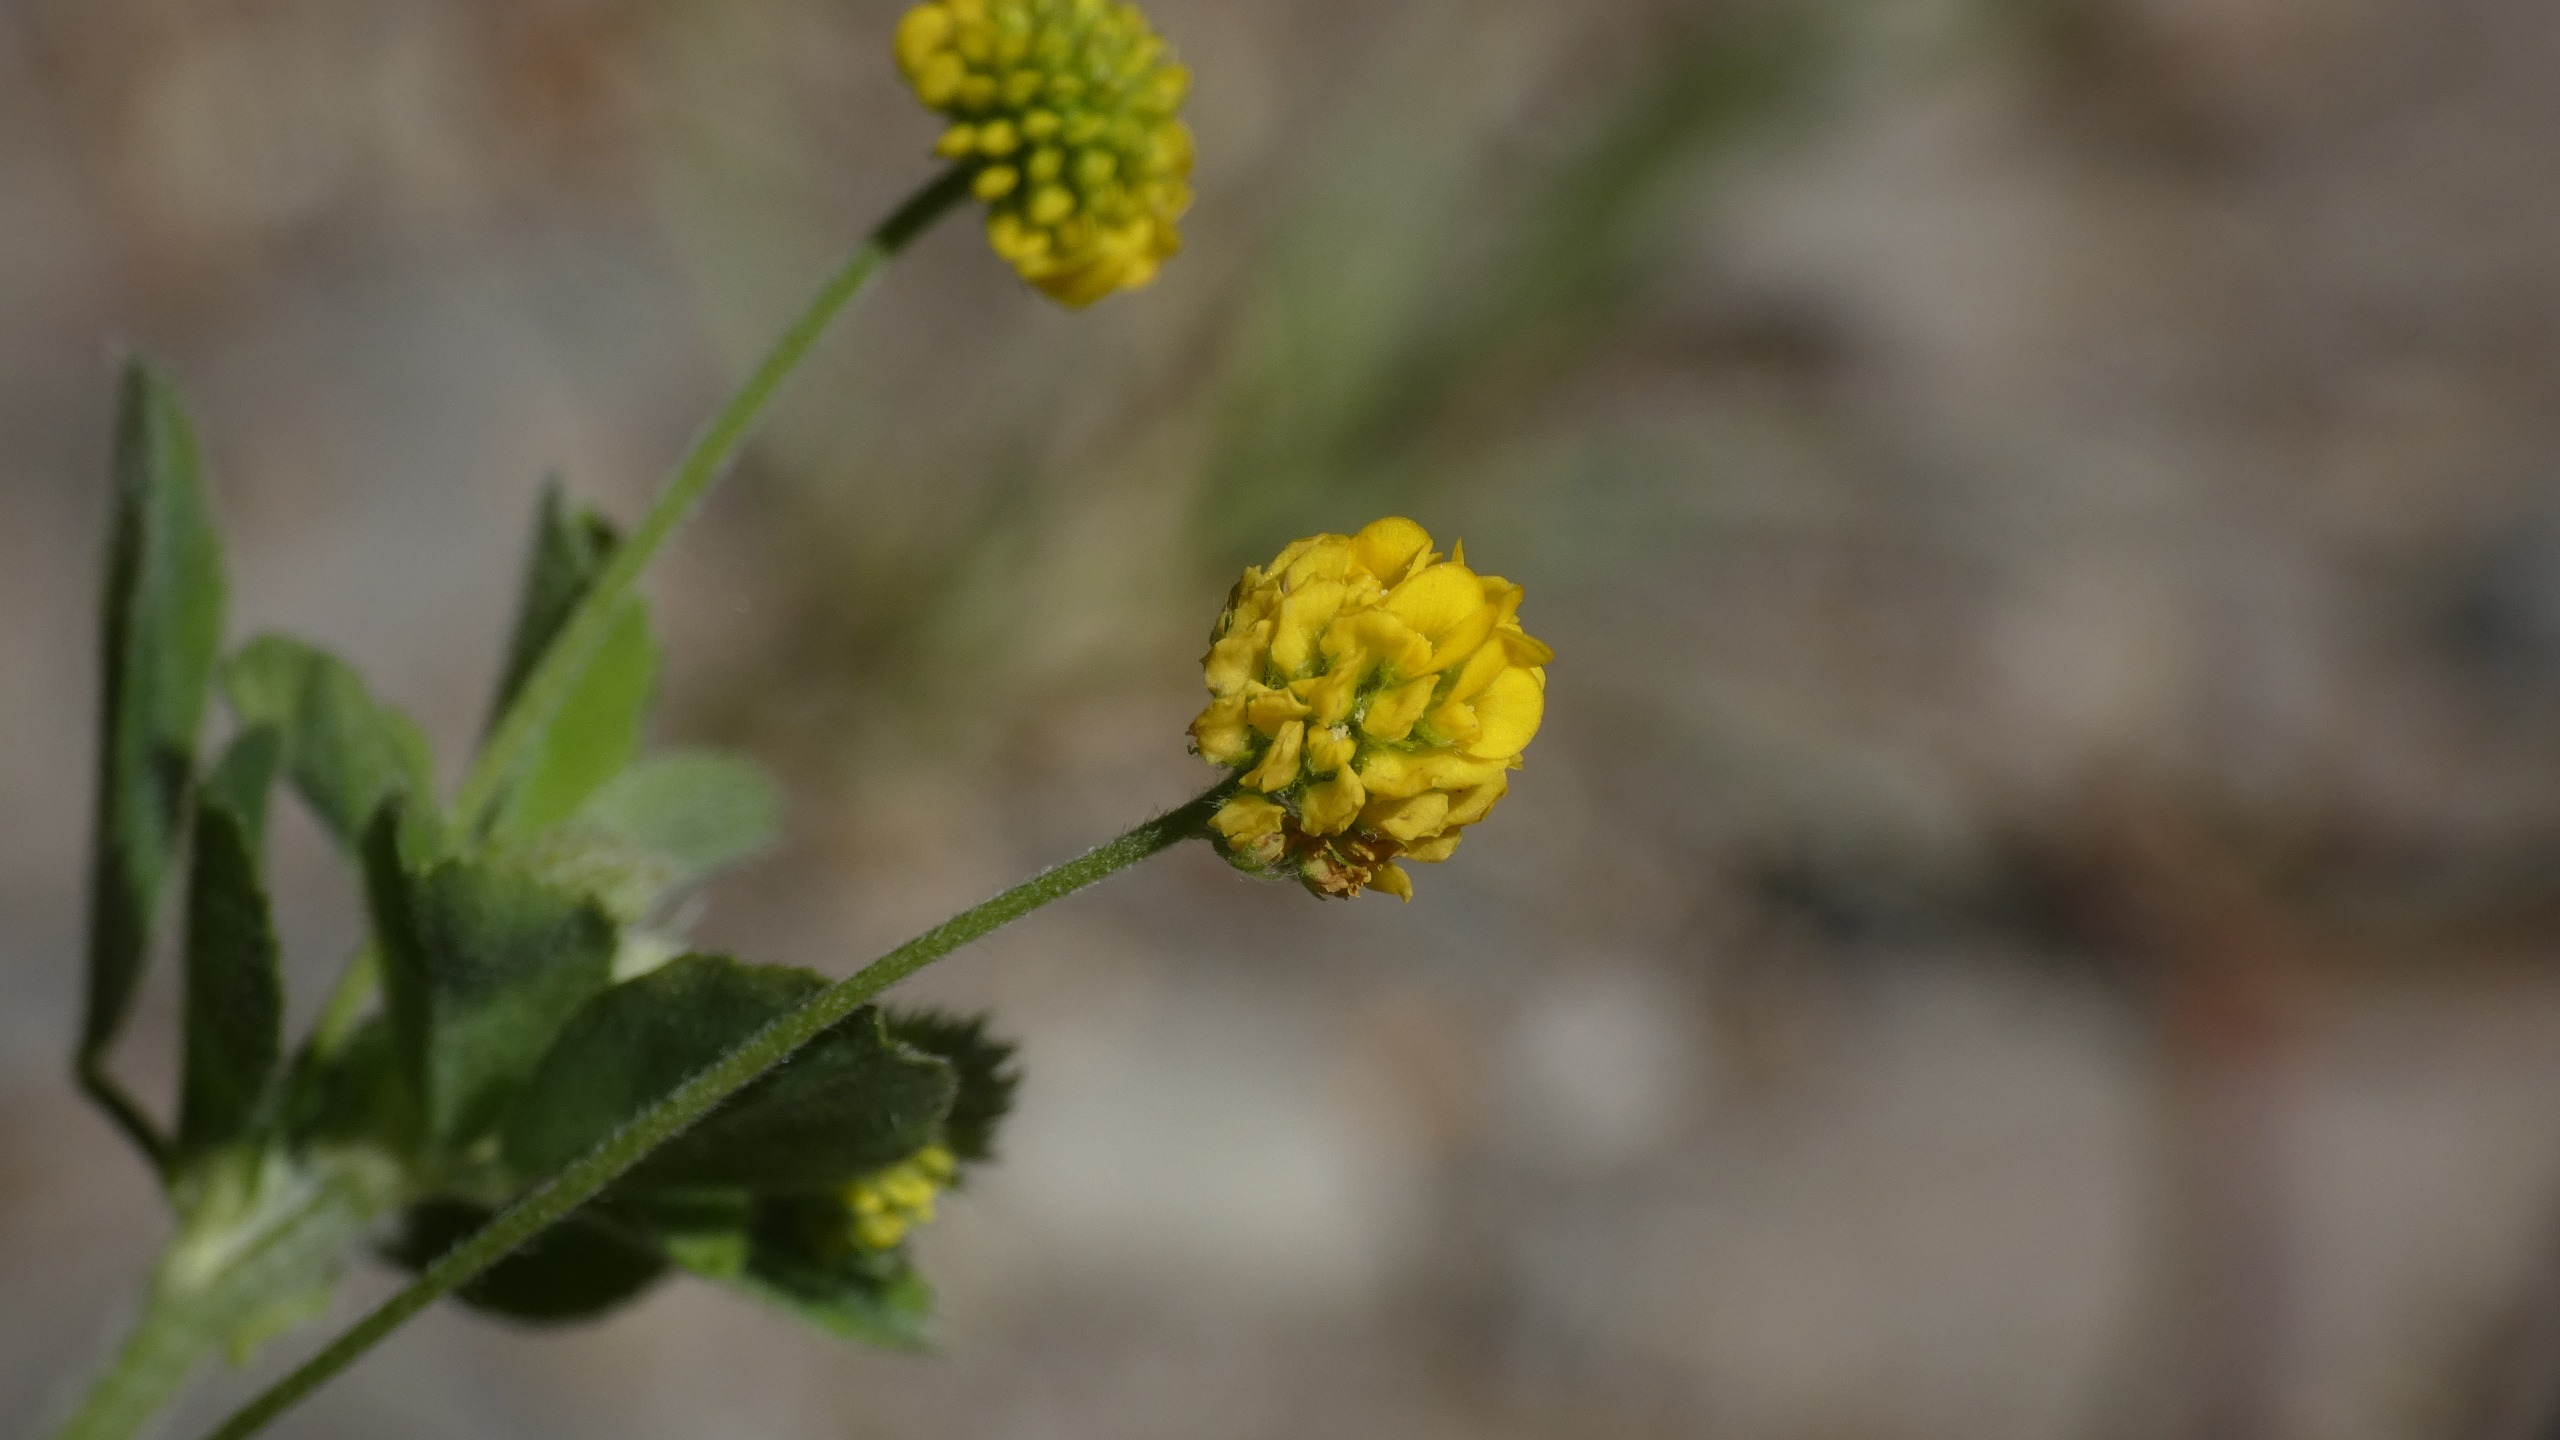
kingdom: Plantae
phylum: Tracheophyta
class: Magnoliopsida
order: Fabales
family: Fabaceae
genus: Medicago
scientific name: Medicago lupulina
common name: Humle-sneglebælg
